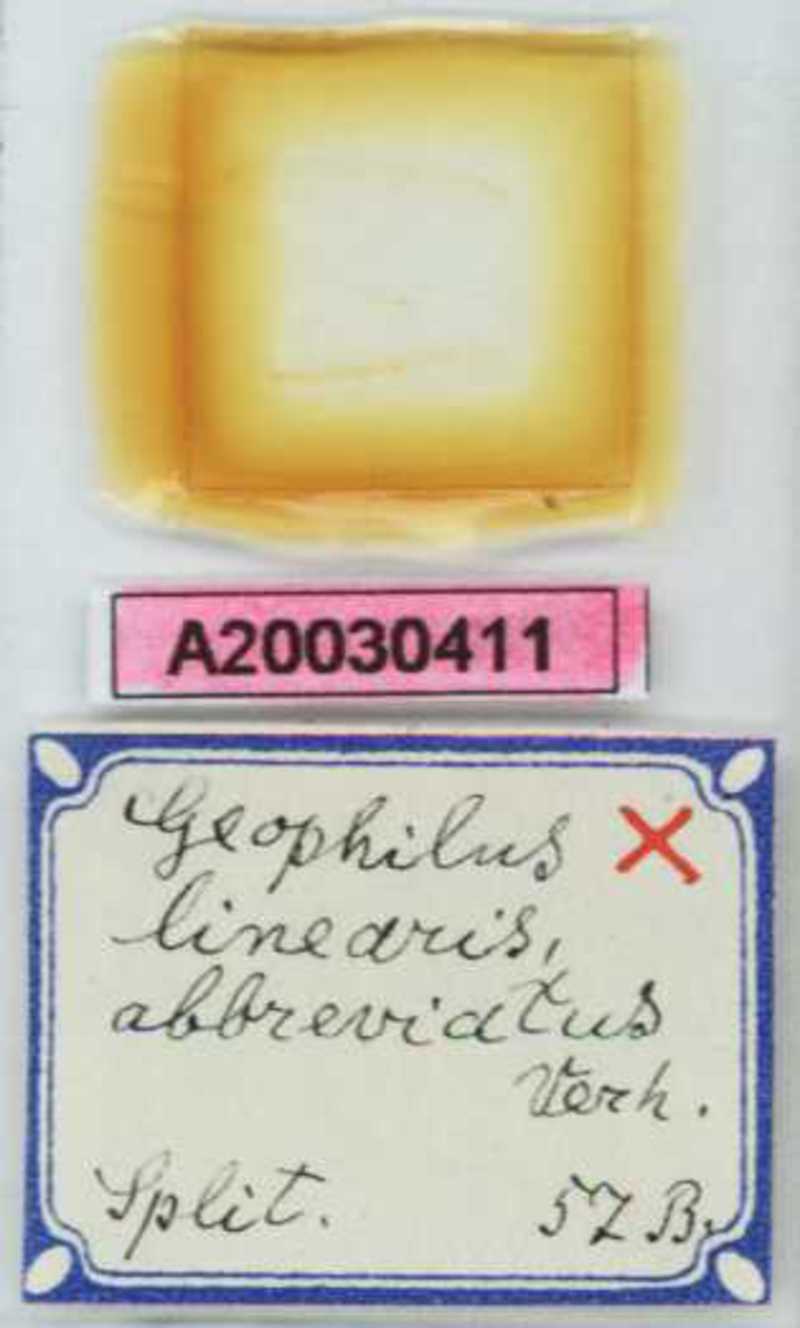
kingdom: Animalia
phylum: Arthropoda
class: Chilopoda
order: Geophilomorpha
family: Geophilidae
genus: Stenotaenia
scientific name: Stenotaenia sorrentina
